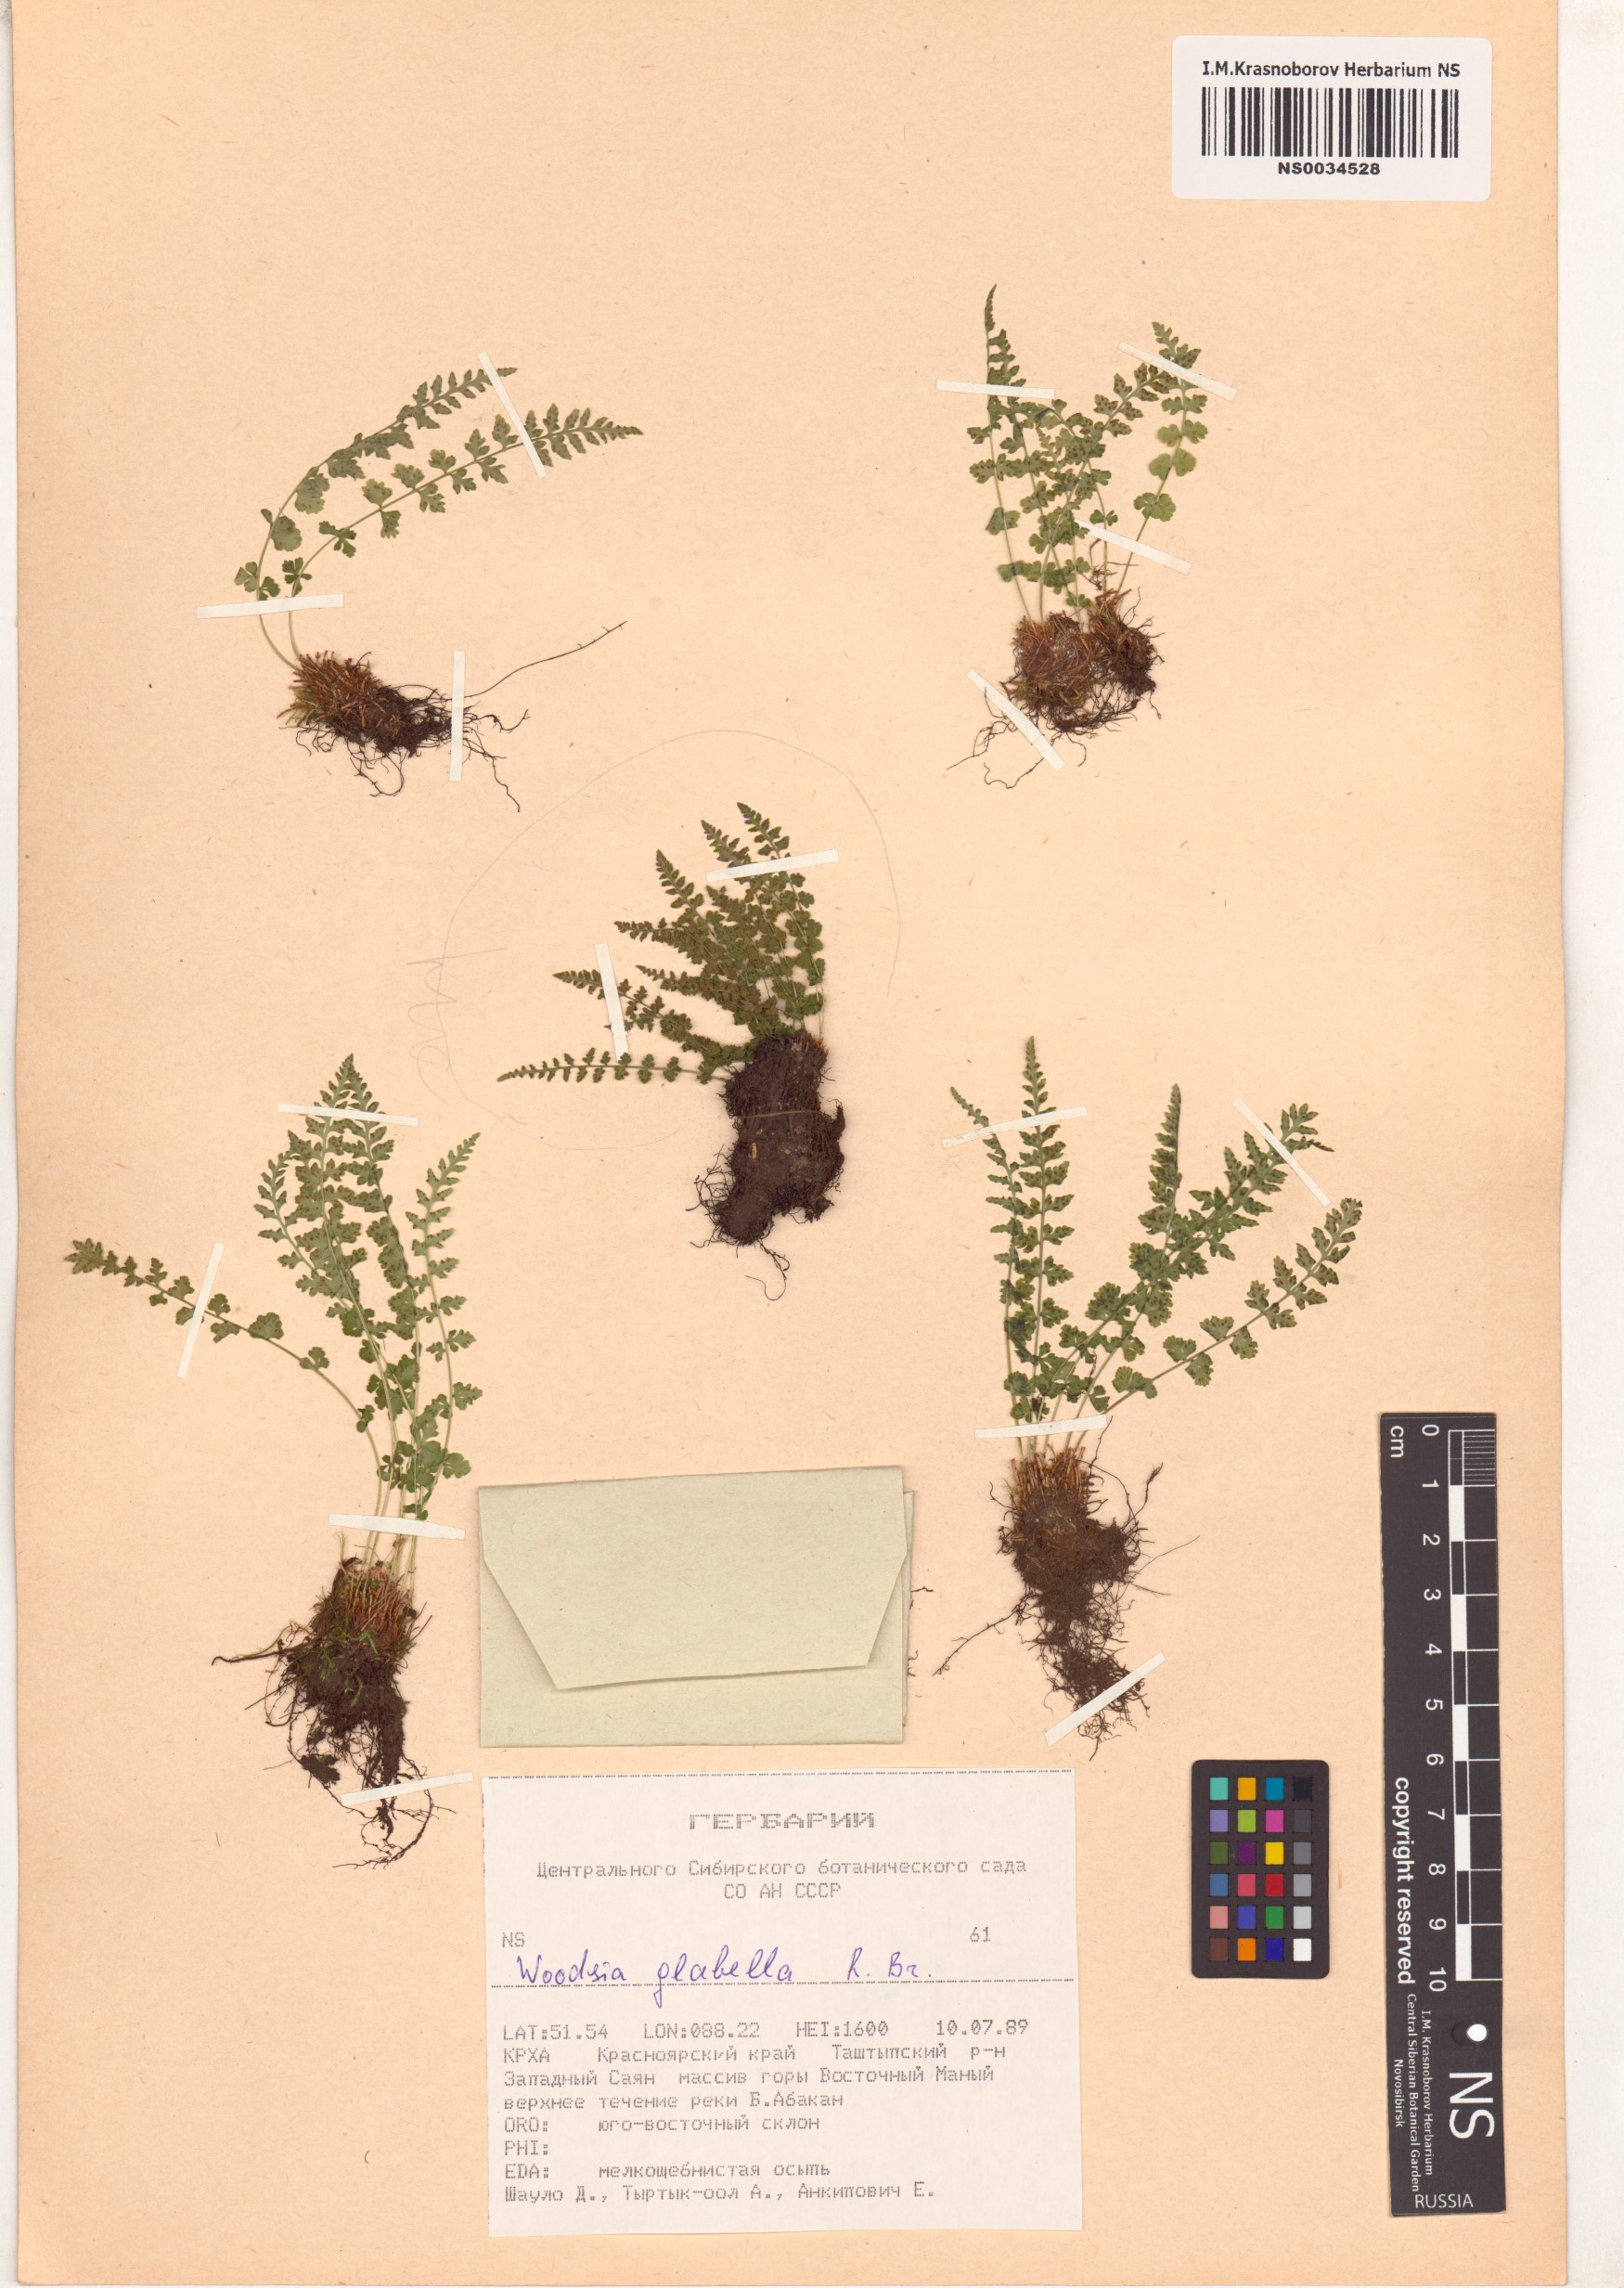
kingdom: Plantae
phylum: Tracheophyta
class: Polypodiopsida
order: Polypodiales
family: Woodsiaceae
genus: Woodsia
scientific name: Woodsia glabella
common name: Smooth woodsia
